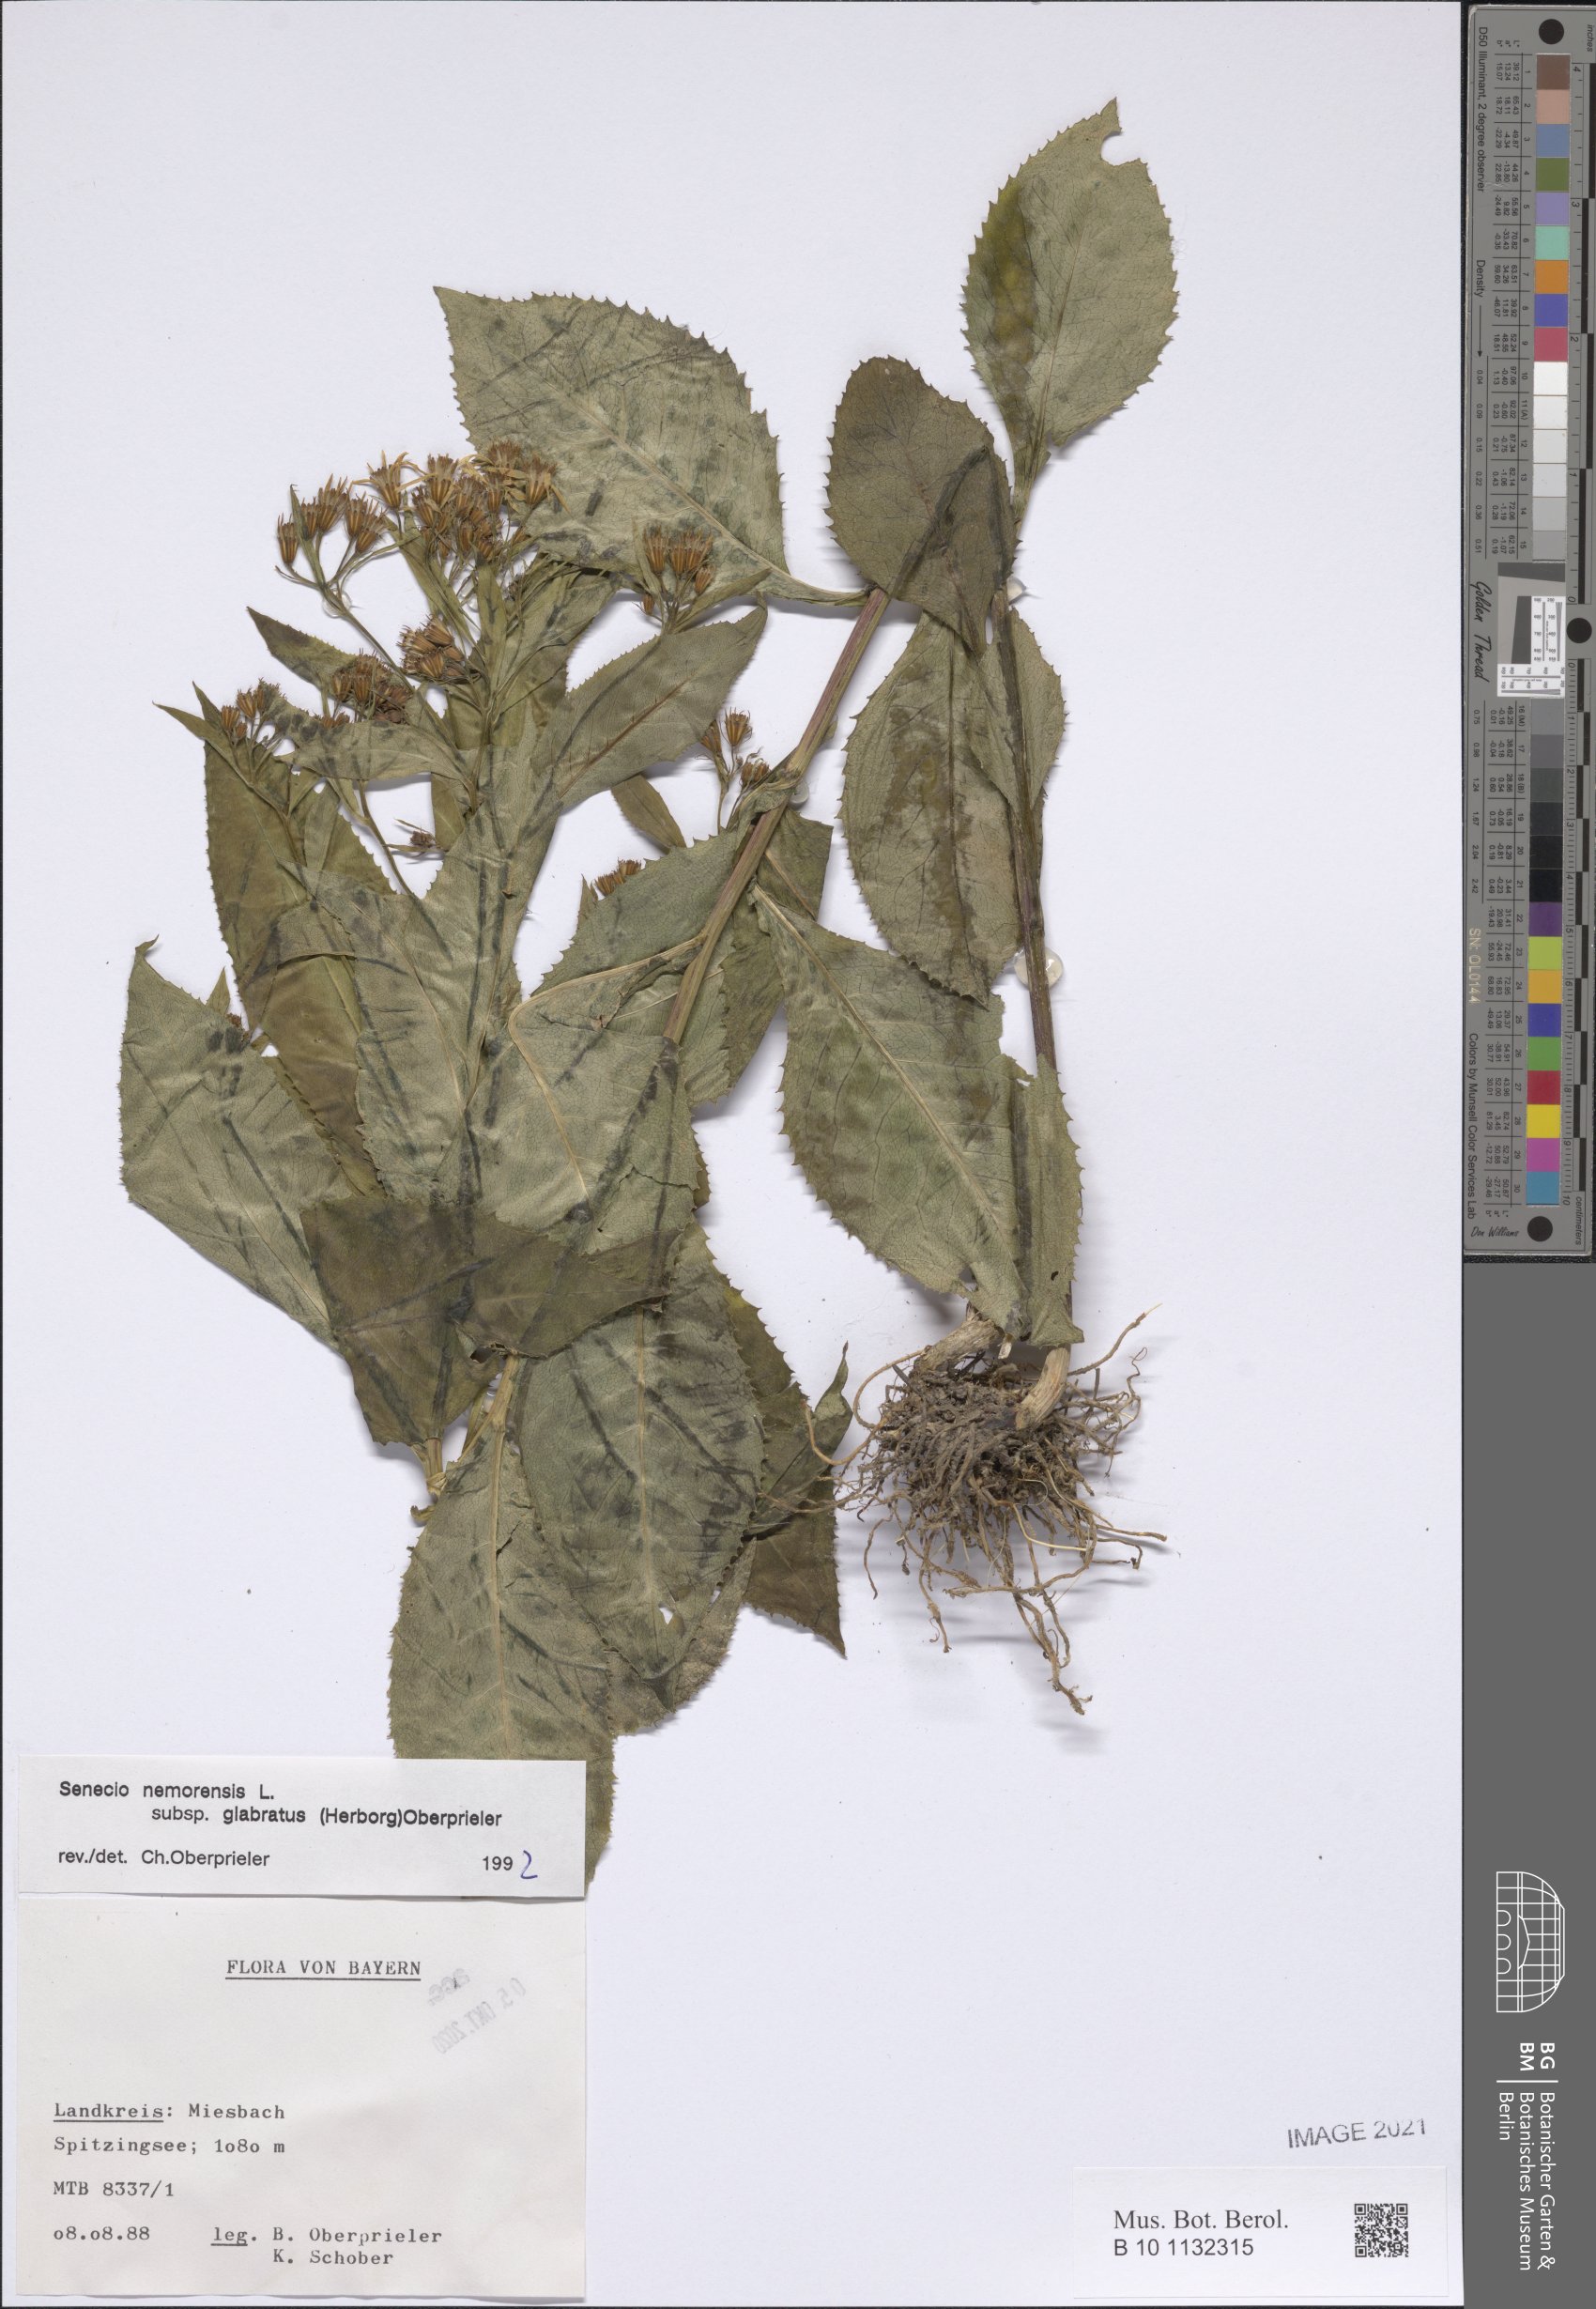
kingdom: Plantae
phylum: Tracheophyta
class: Magnoliopsida
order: Asterales
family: Asteraceae
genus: Senecio
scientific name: Senecio germanicus
